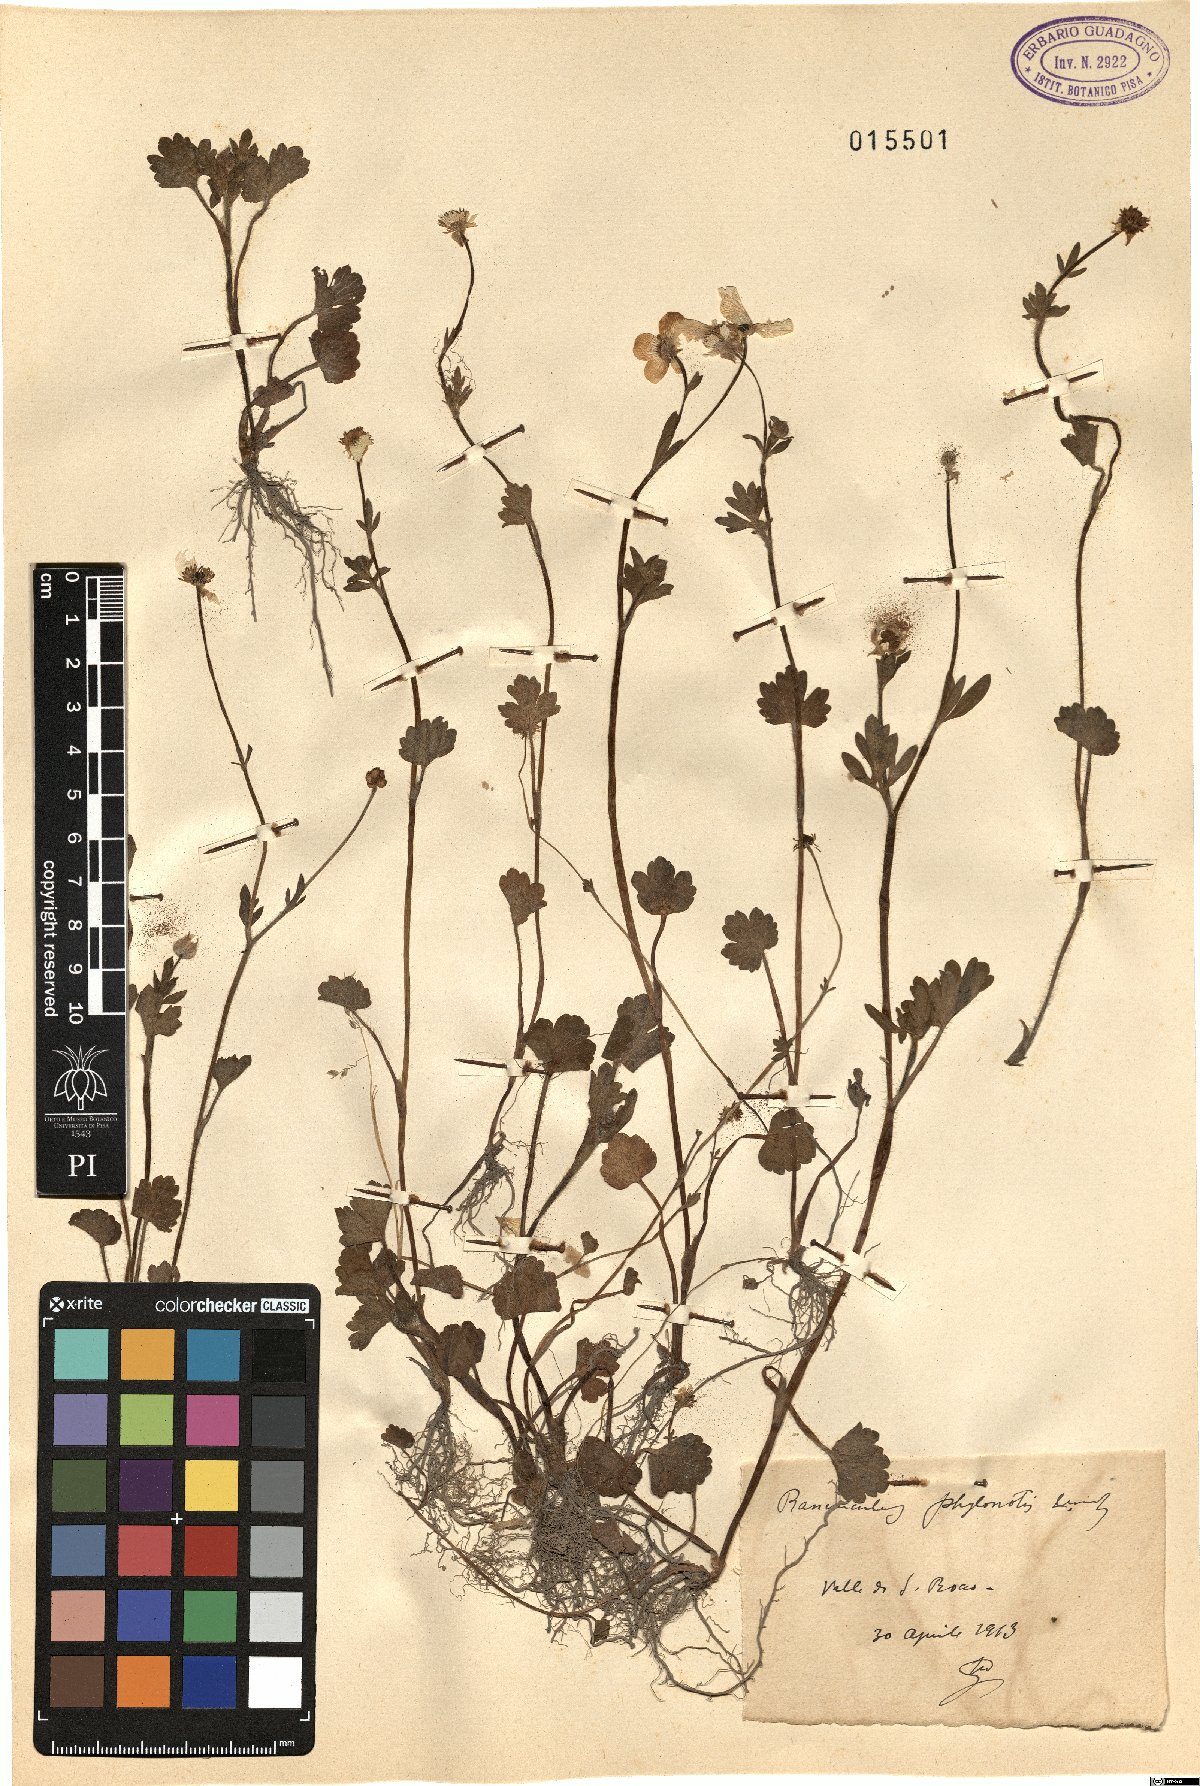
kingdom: Plantae
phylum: Tracheophyta
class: Magnoliopsida
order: Ranunculales
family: Ranunculaceae
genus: Ranunculus
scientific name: Ranunculus sardous
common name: Hairy buttercup
